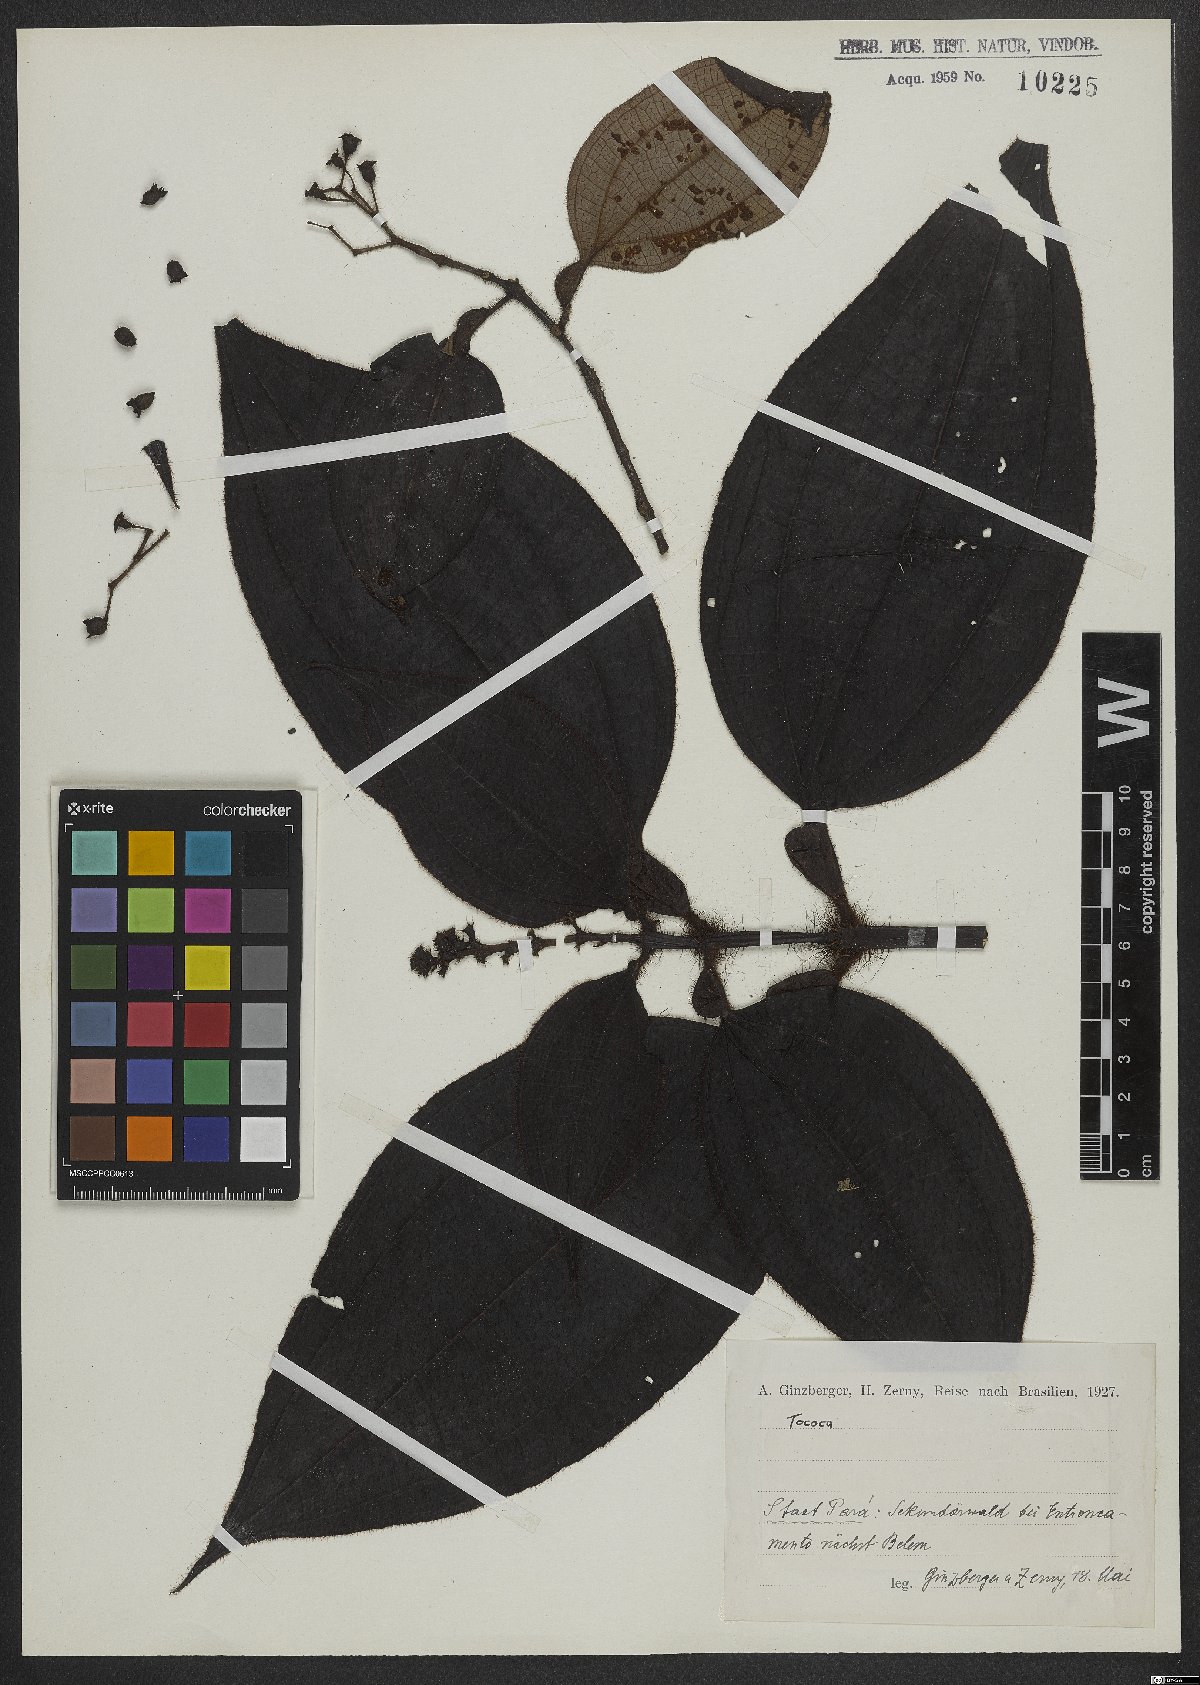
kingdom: Plantae
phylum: Tracheophyta
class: Magnoliopsida
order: Myrtales
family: Melastomataceae
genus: Miconia
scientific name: Miconia
